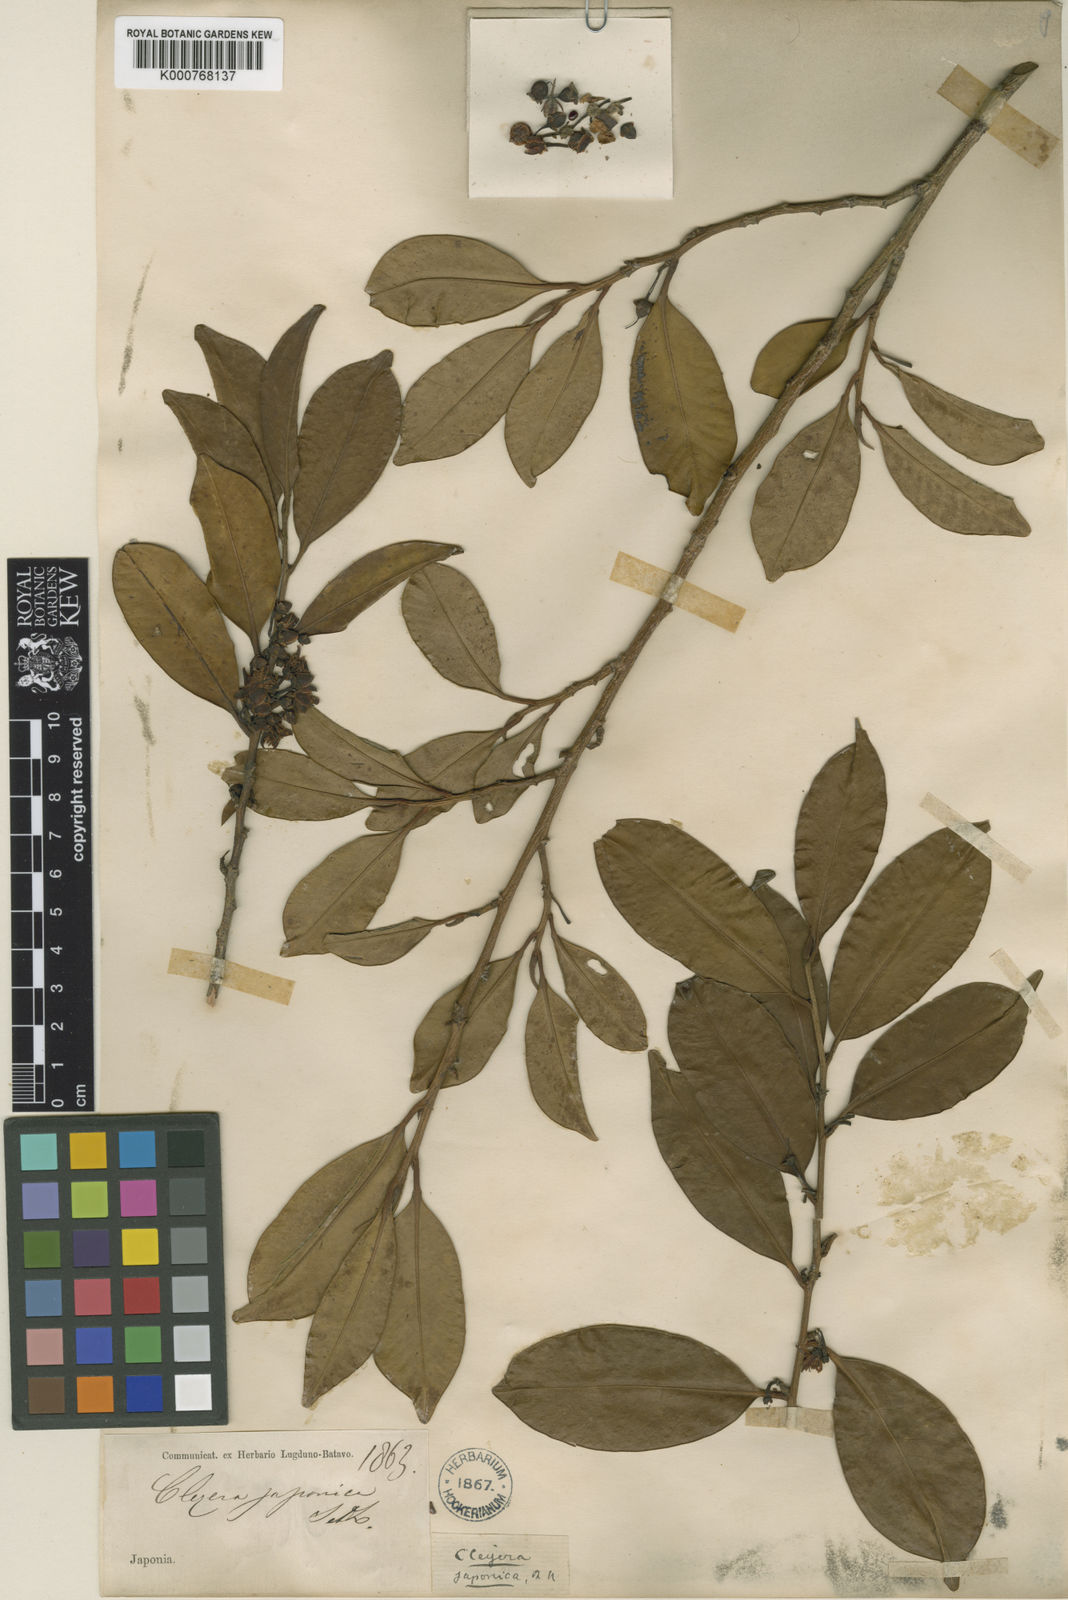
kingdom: Plantae
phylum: Tracheophyta
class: Magnoliopsida
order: Ericales
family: Pentaphylacaceae
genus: Cleyera
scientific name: Cleyera japonica
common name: Sakaki
